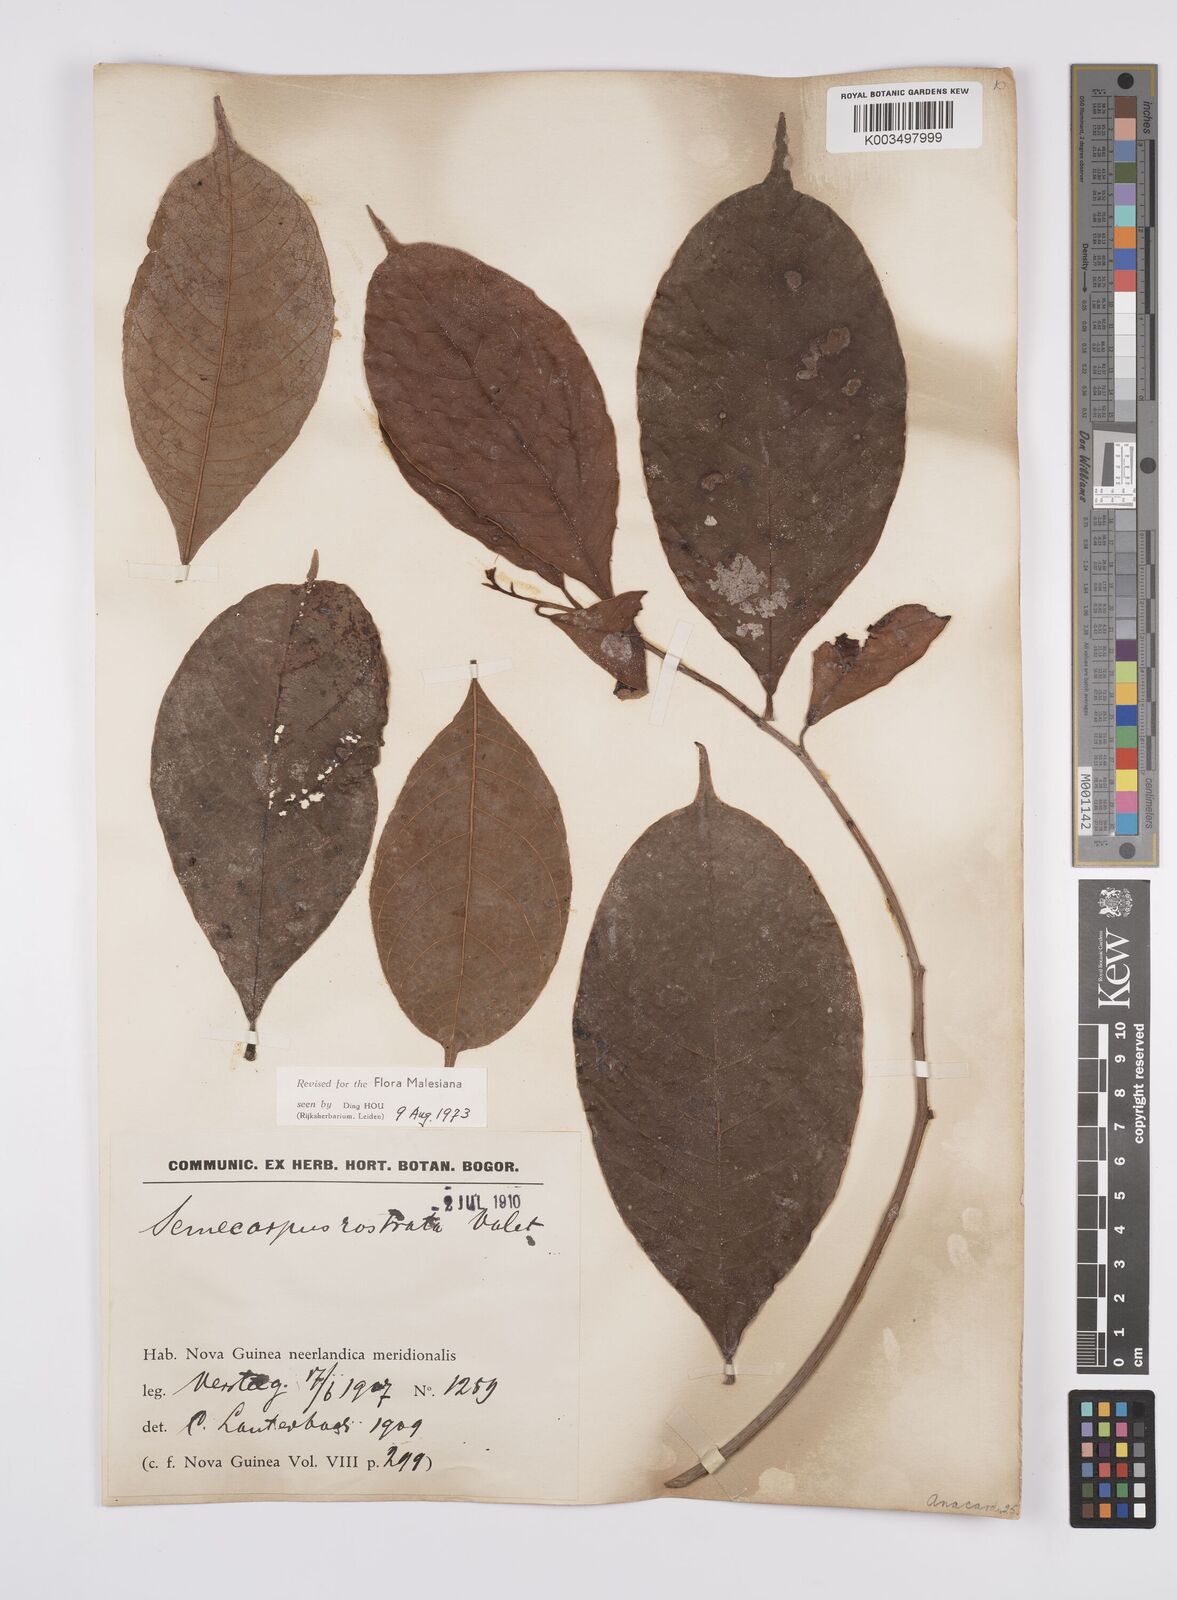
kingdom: Plantae
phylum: Tracheophyta
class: Magnoliopsida
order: Sapindales
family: Anacardiaceae
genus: Semecarpus
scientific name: Semecarpus rostratus
